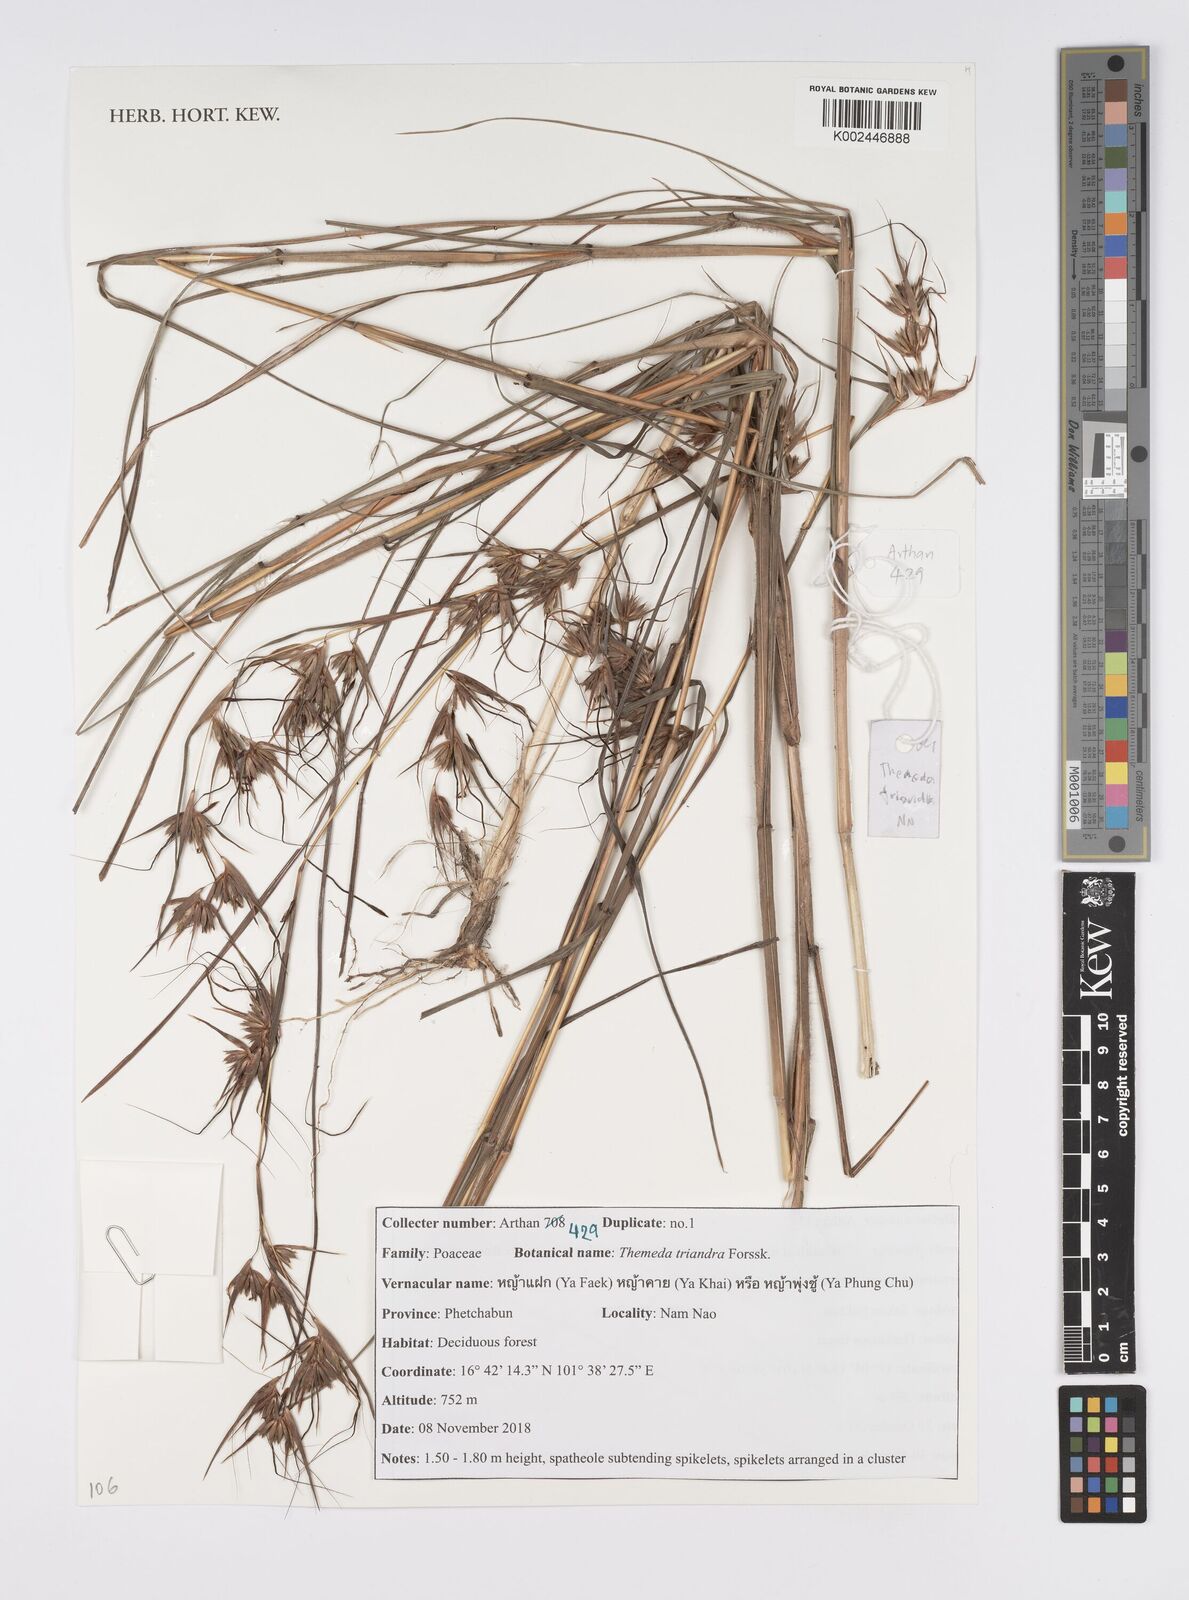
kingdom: Plantae
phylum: Tracheophyta
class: Liliopsida
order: Poales
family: Poaceae
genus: Themeda
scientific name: Themeda triandra
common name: Kangaroo grass
